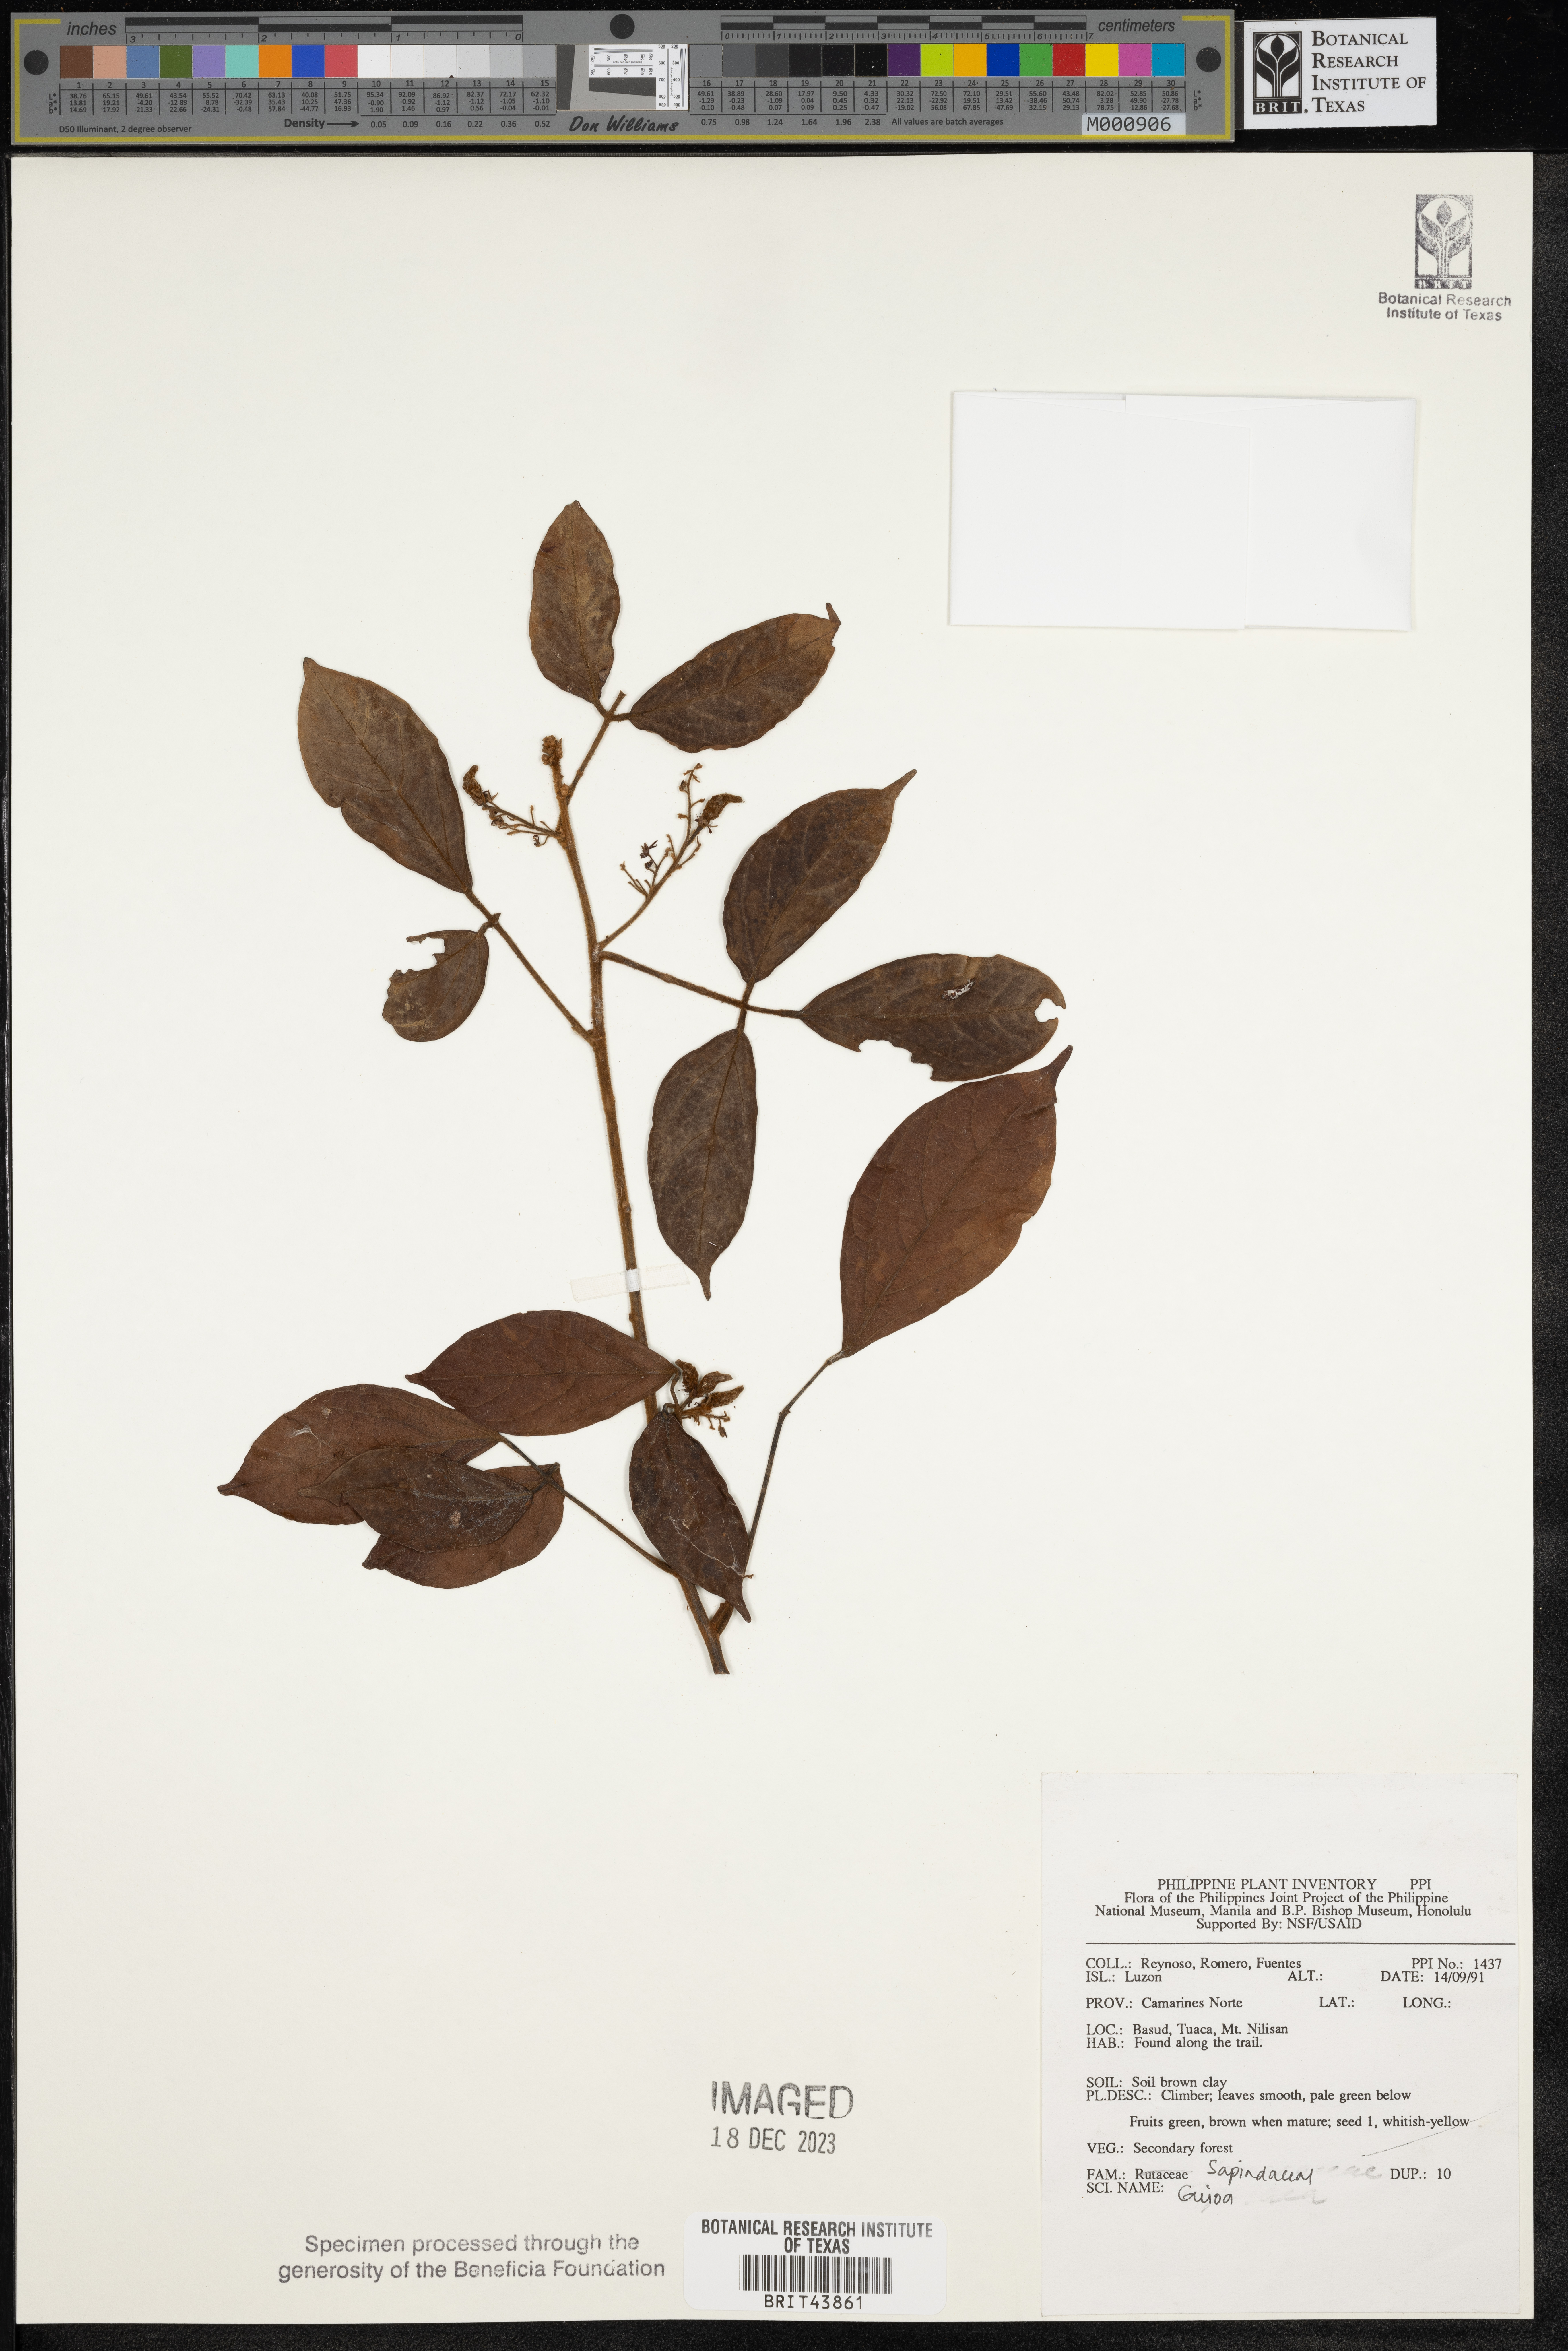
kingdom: Plantae
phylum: Tracheophyta
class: Magnoliopsida
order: Sapindales
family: Sapindaceae
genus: Guioa
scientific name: Guioa
